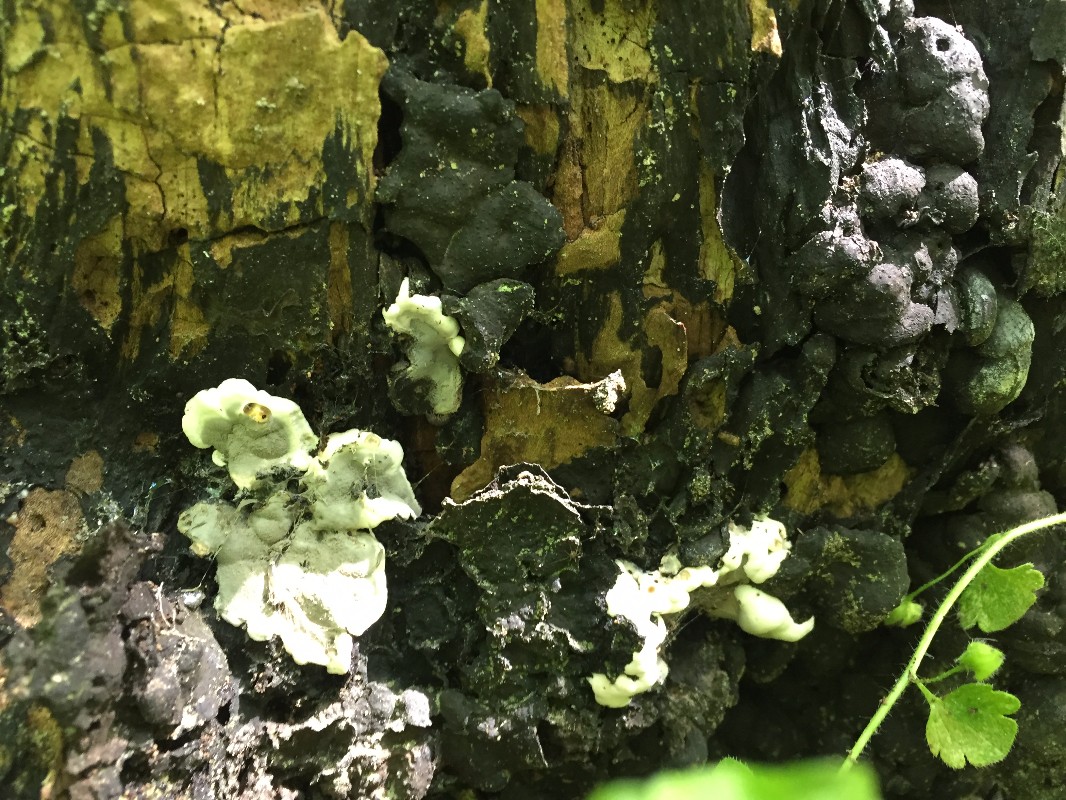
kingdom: Fungi
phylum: Ascomycota
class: Sordariomycetes
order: Xylariales
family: Xylariaceae
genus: Kretzschmaria
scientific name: Kretzschmaria deusta
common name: stor kulsvamp
